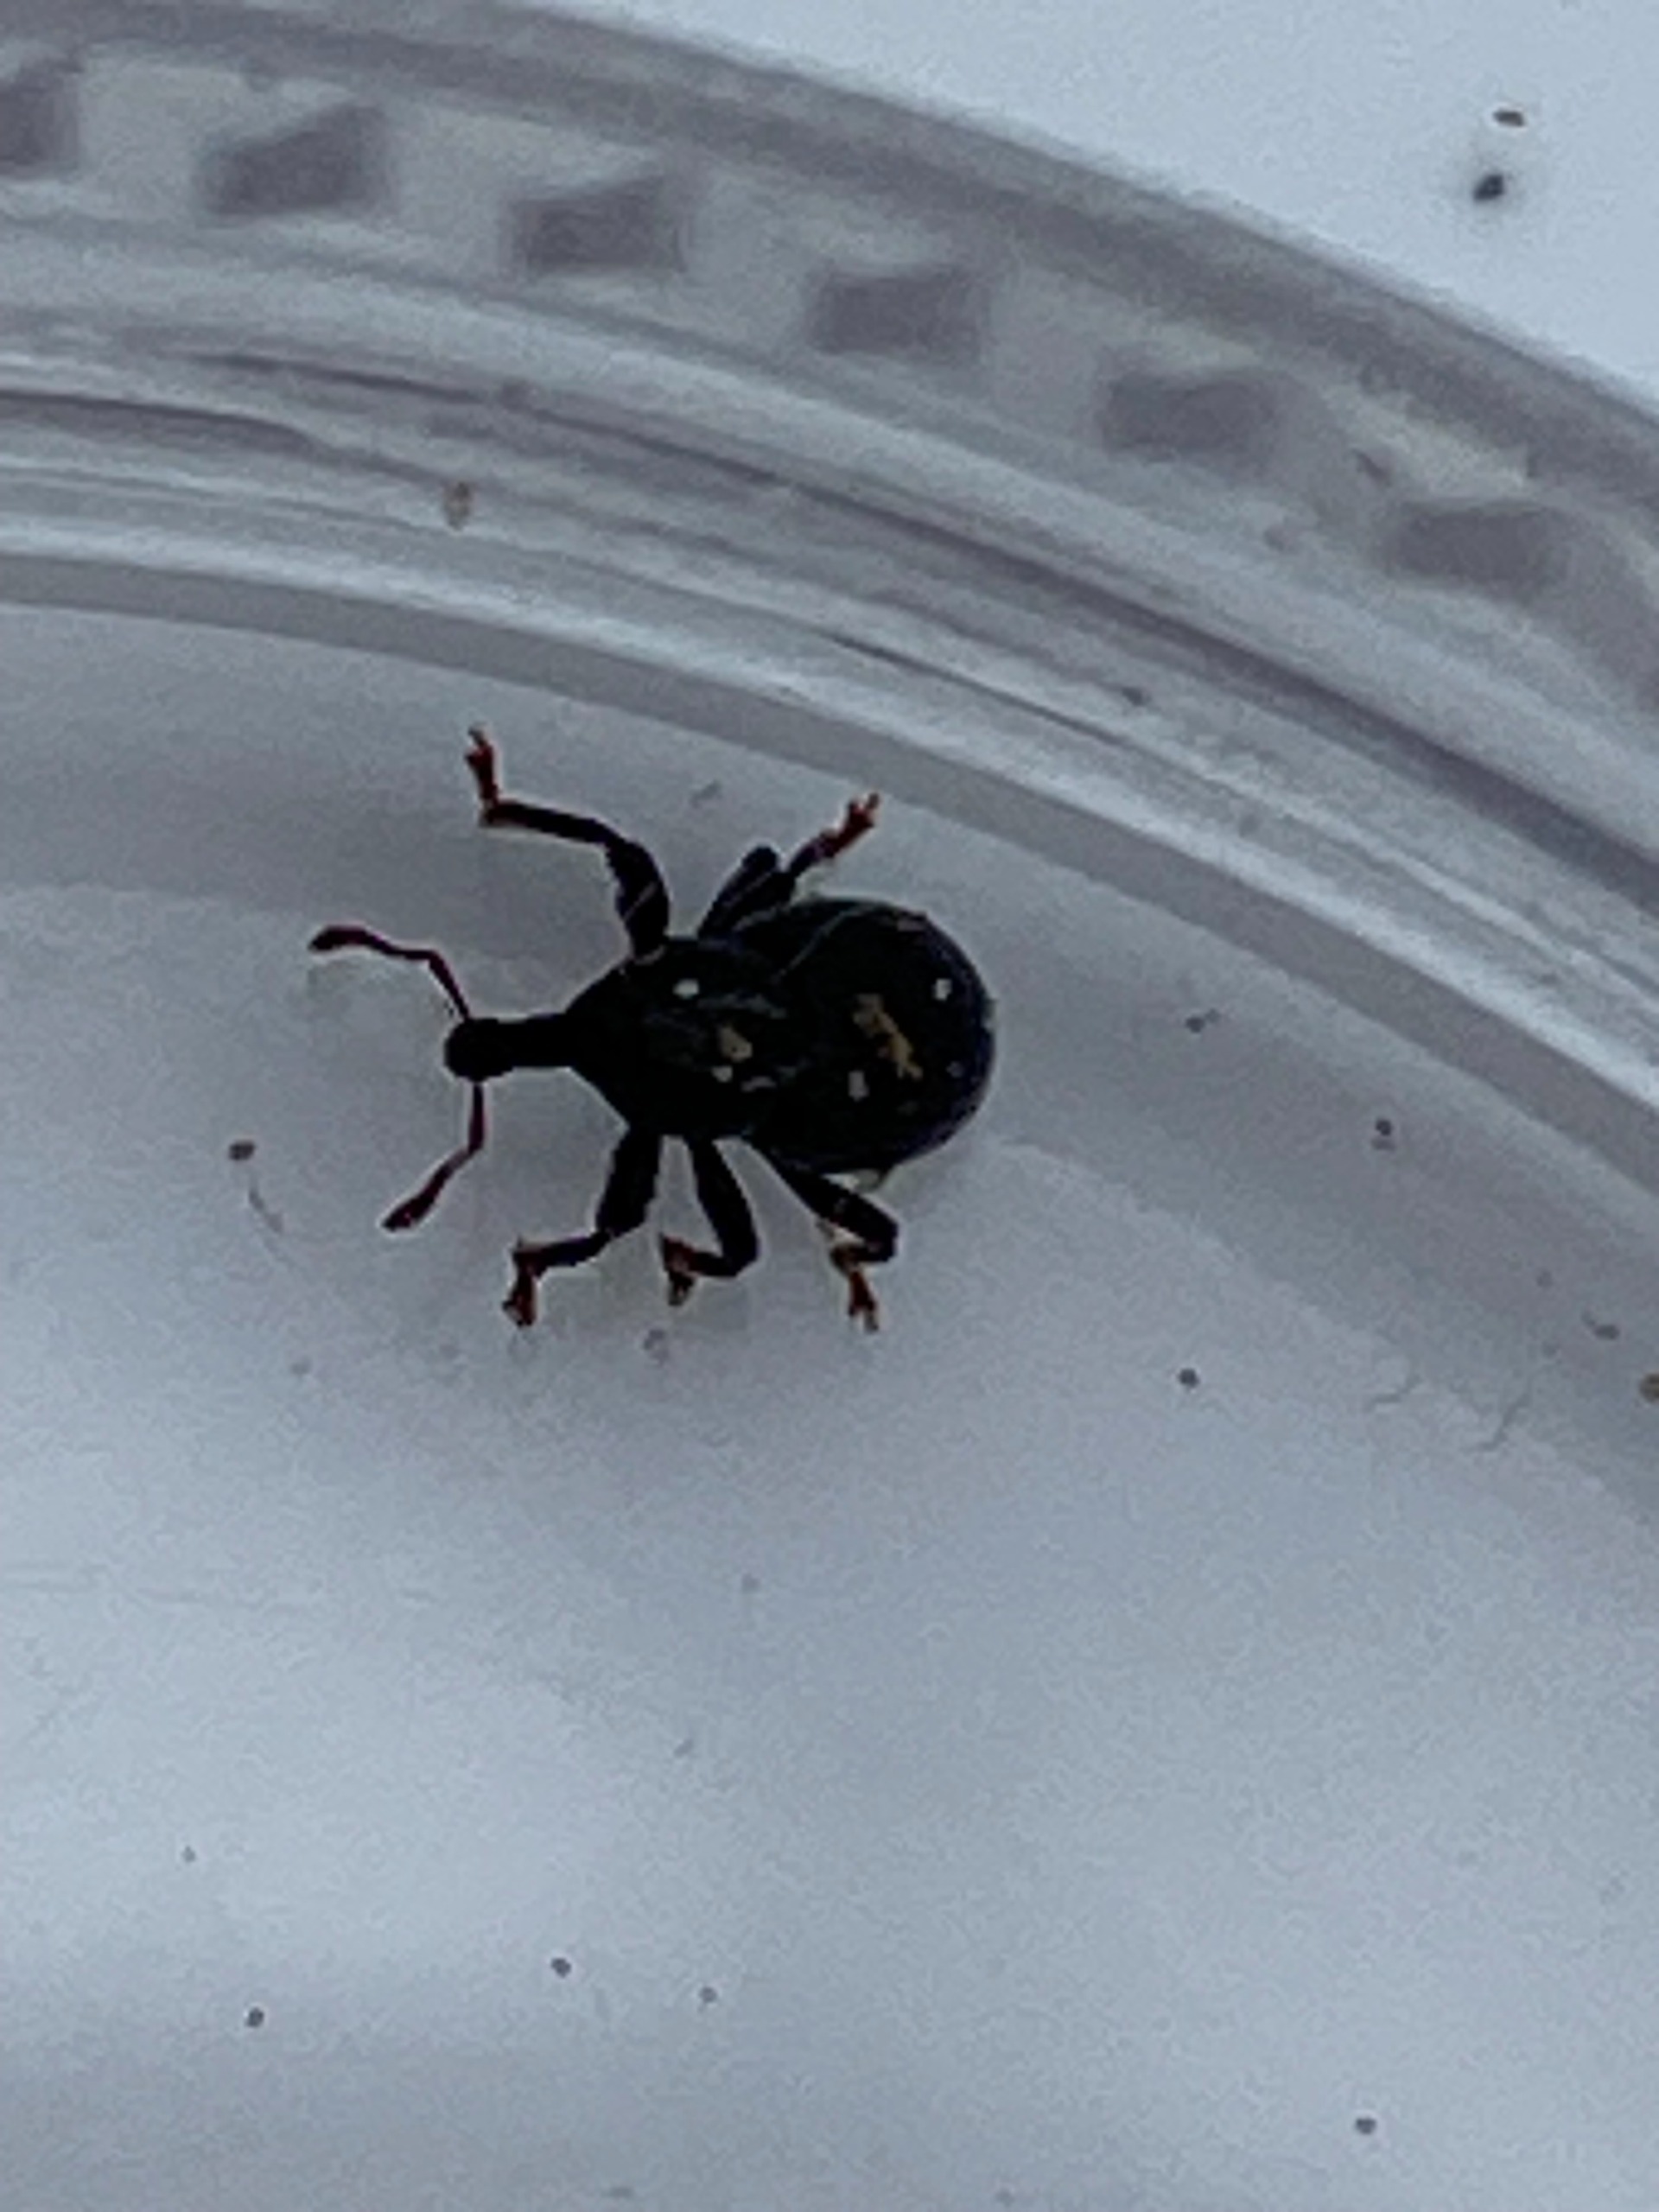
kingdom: Animalia
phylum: Arthropoda
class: Insecta
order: Coleoptera
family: Curculionidae
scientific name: Curculionidae
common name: Snudebiller
